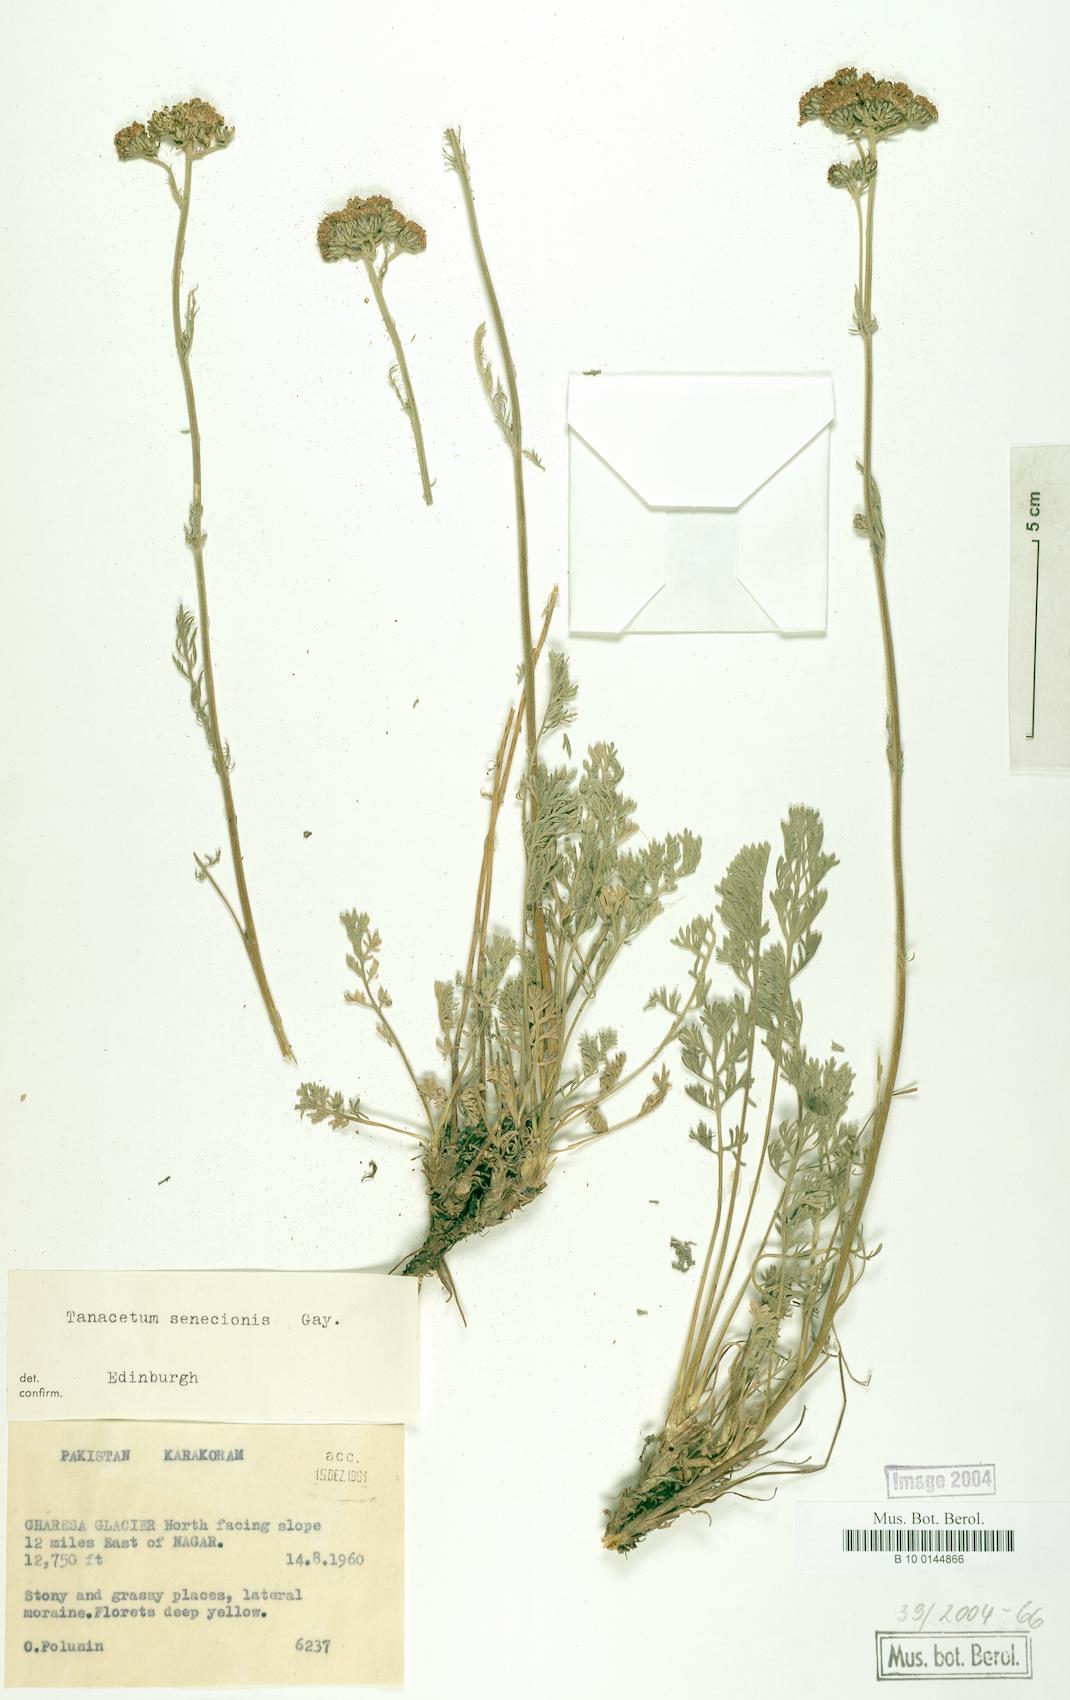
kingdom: Plantae
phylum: Tracheophyta
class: Magnoliopsida
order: Asterales
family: Asteraceae
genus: Hippolytia
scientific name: Hippolytia senecionis
